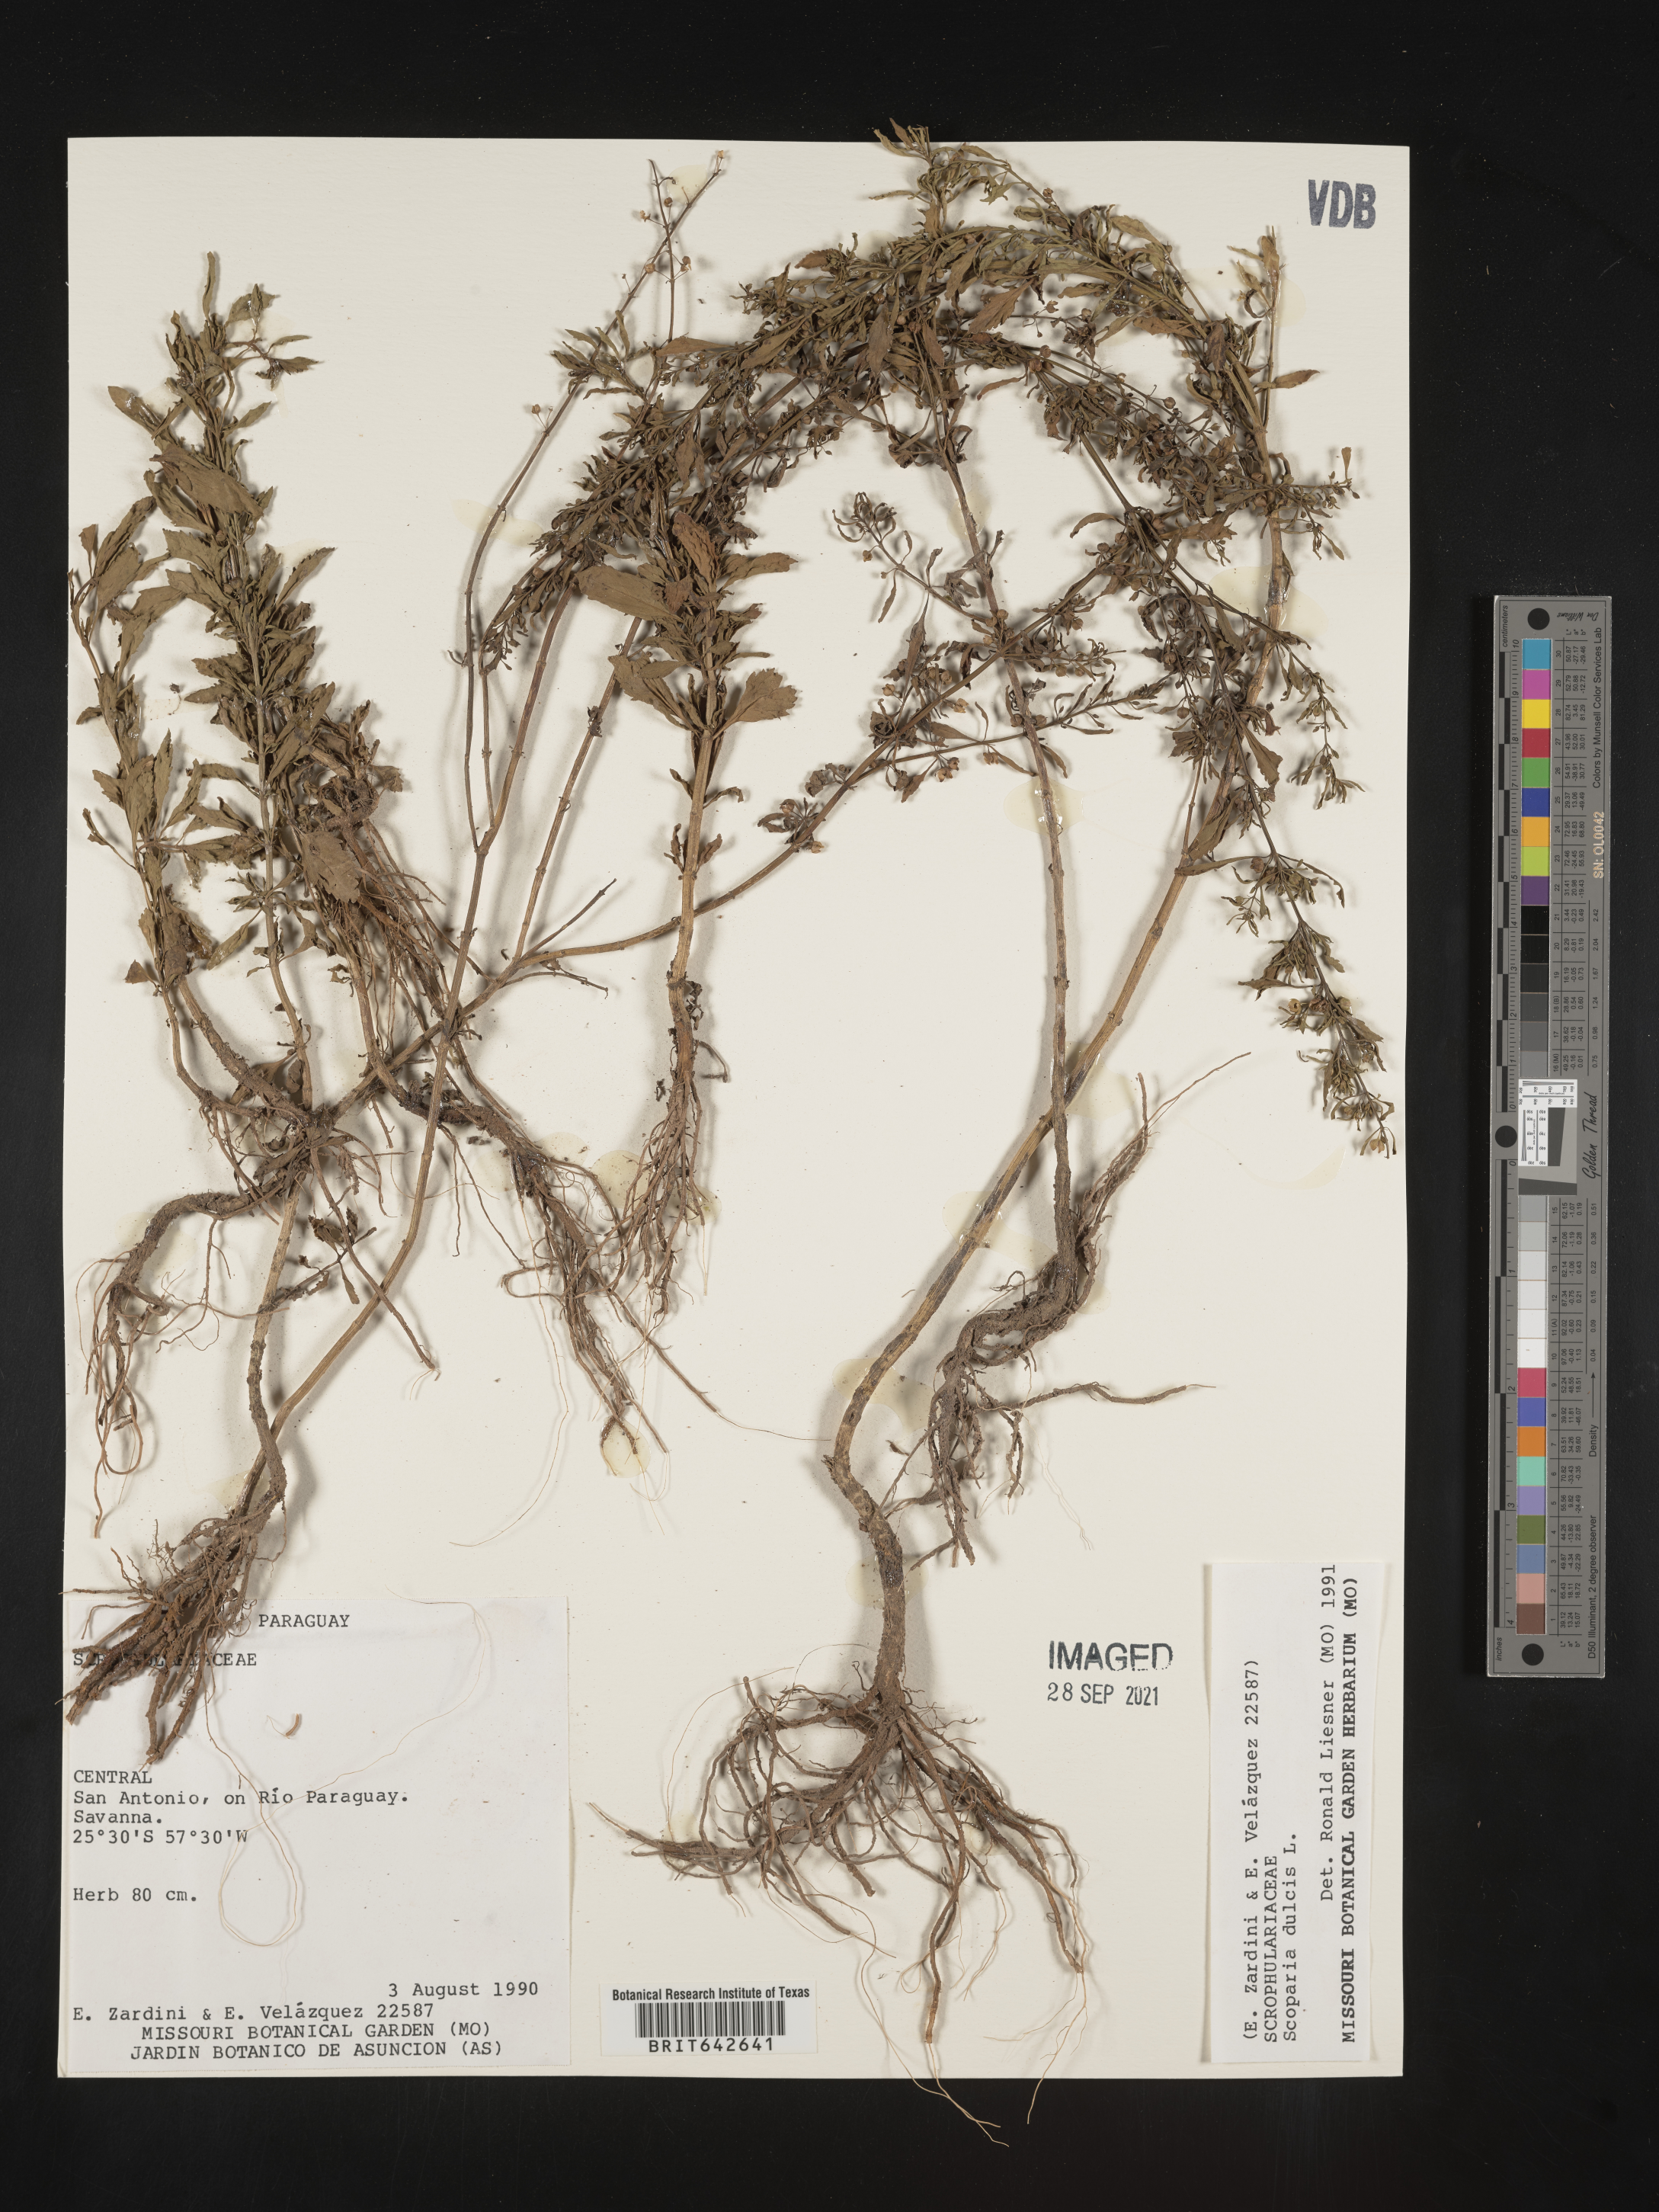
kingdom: Plantae
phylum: Tracheophyta
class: Magnoliopsida
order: Lamiales
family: Plantaginaceae
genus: Scoparia
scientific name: Scoparia
